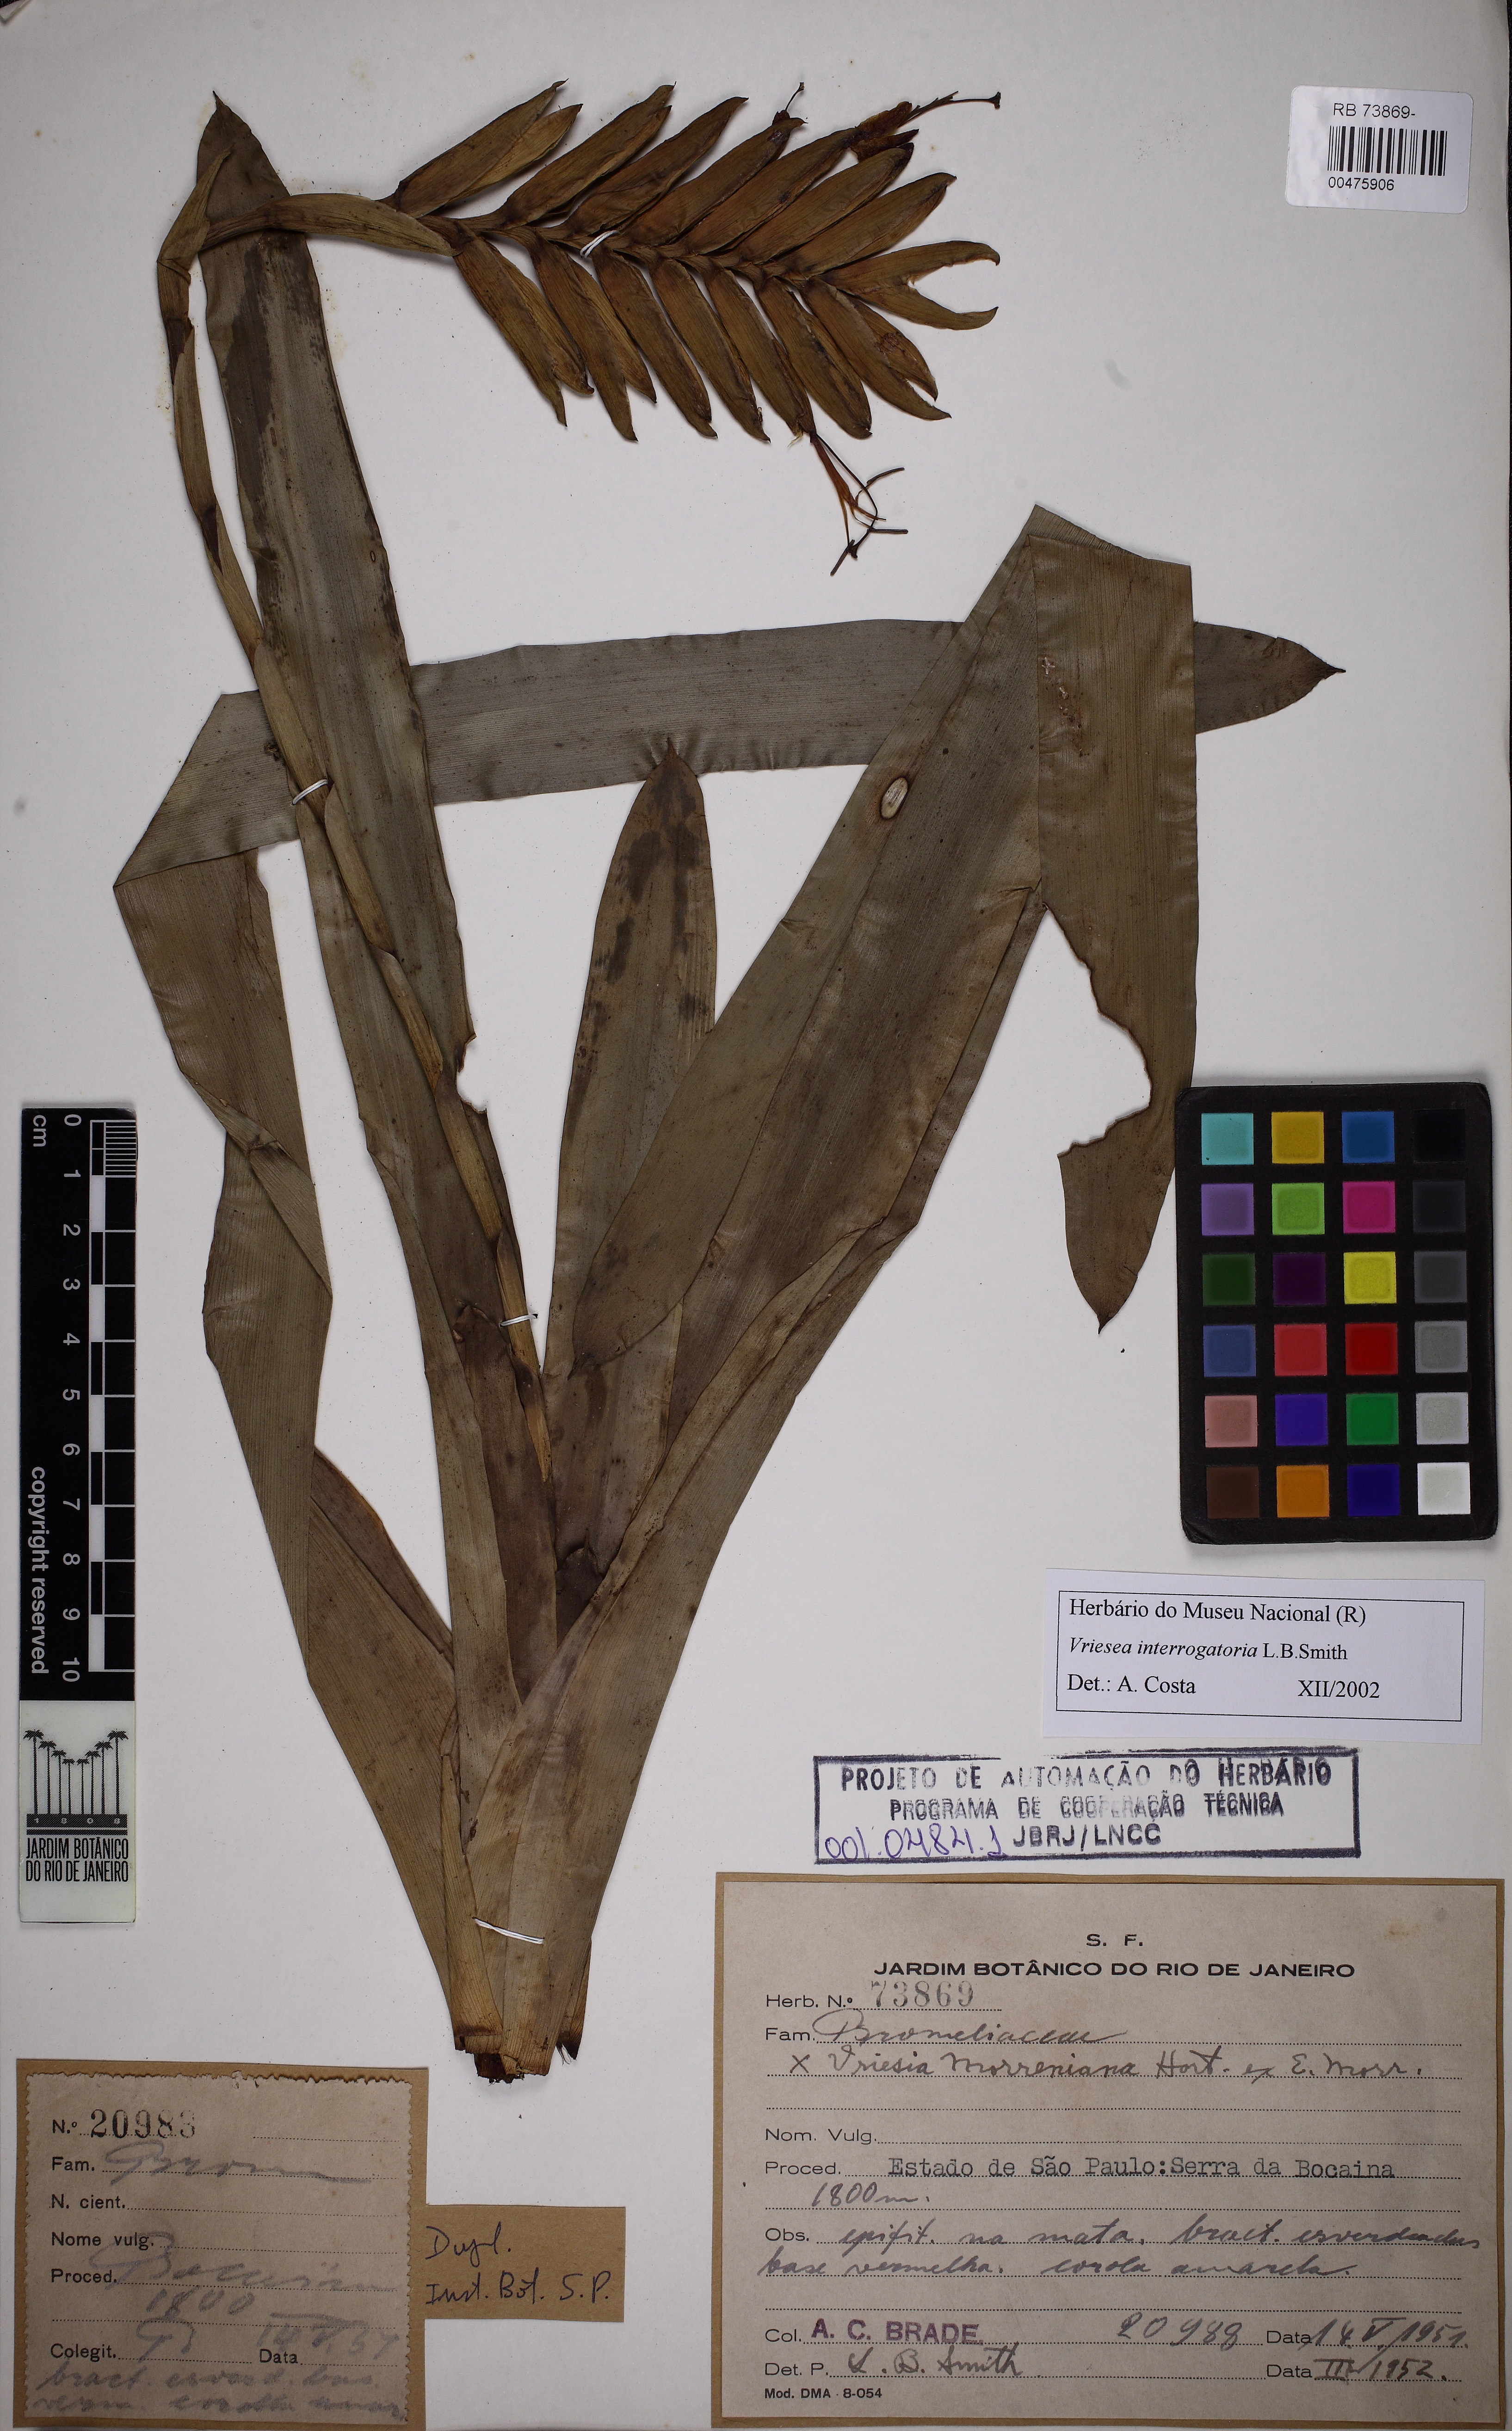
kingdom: Plantae
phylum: Tracheophyta
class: Liliopsida
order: Poales
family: Bromeliaceae
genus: Vriesea
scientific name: Vriesea interrogatoria
